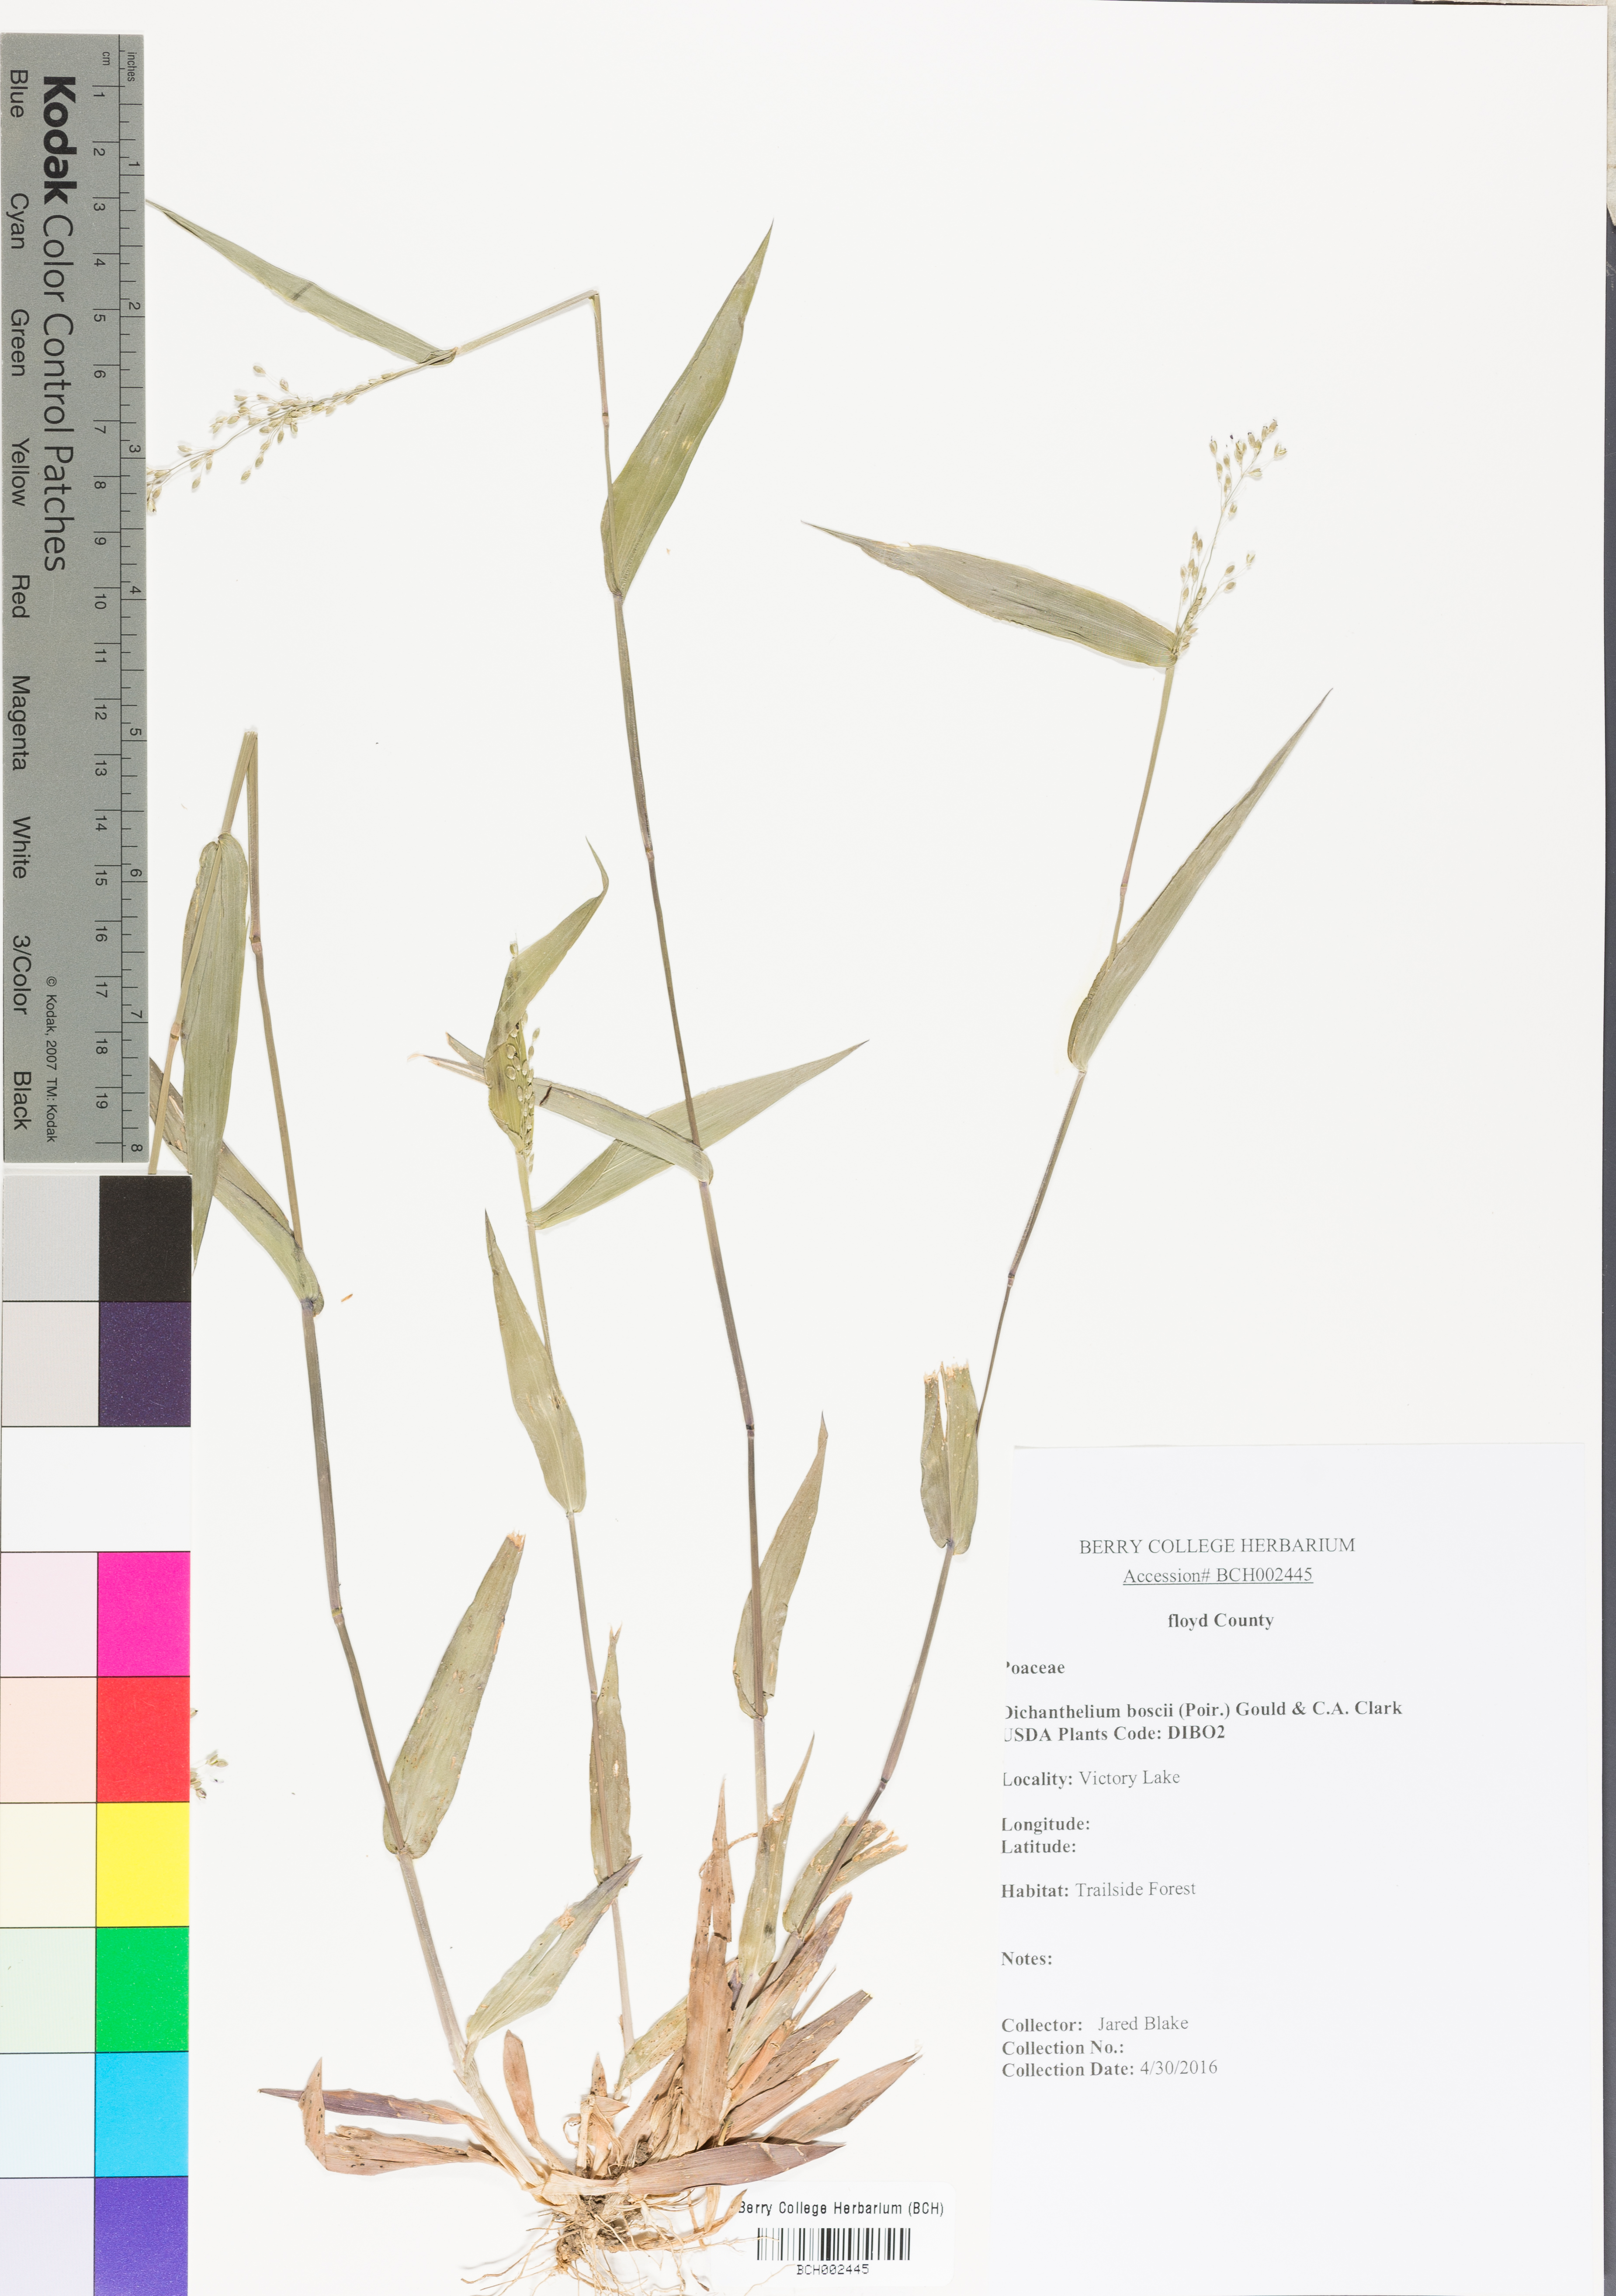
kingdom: Plantae
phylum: Tracheophyta
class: Liliopsida
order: Poales
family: Poaceae
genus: Dichanthelium
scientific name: Dichanthelium boscii
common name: Bosc's panic grass
